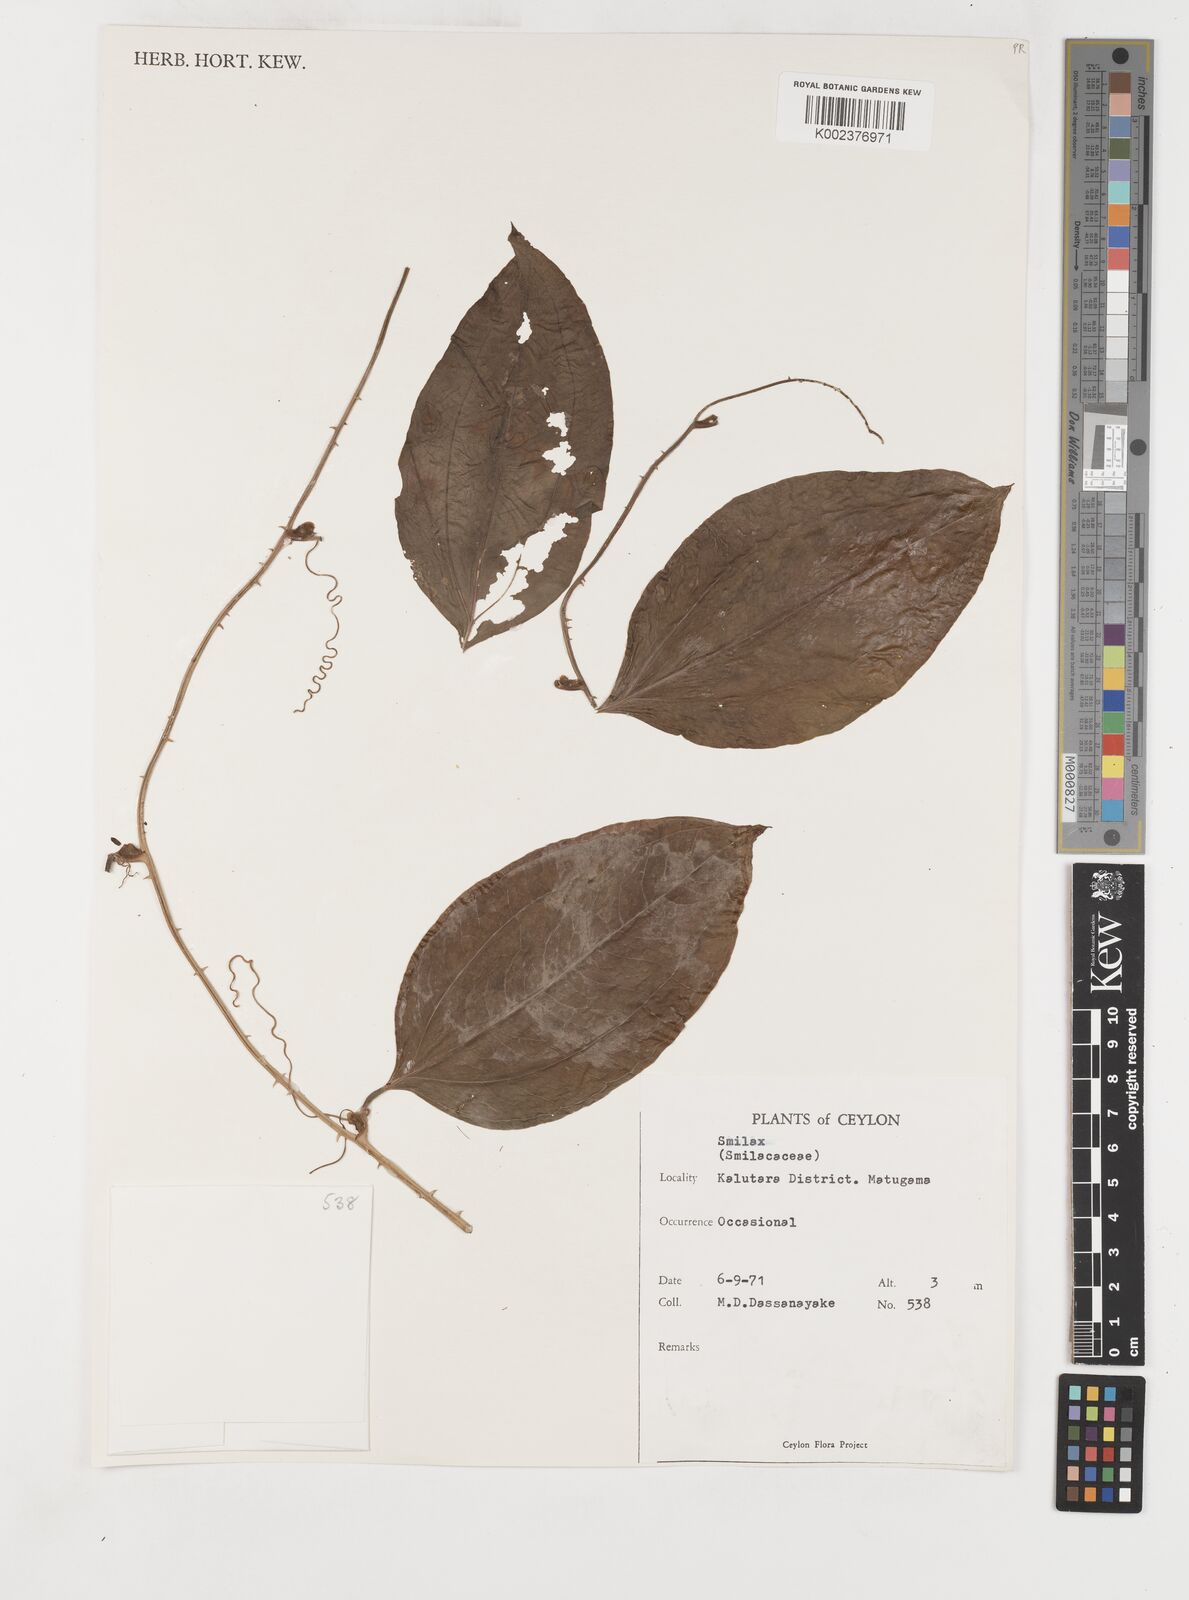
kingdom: Plantae
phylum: Tracheophyta
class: Liliopsida
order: Liliales
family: Smilacaceae
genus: Smilax
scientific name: Smilax
